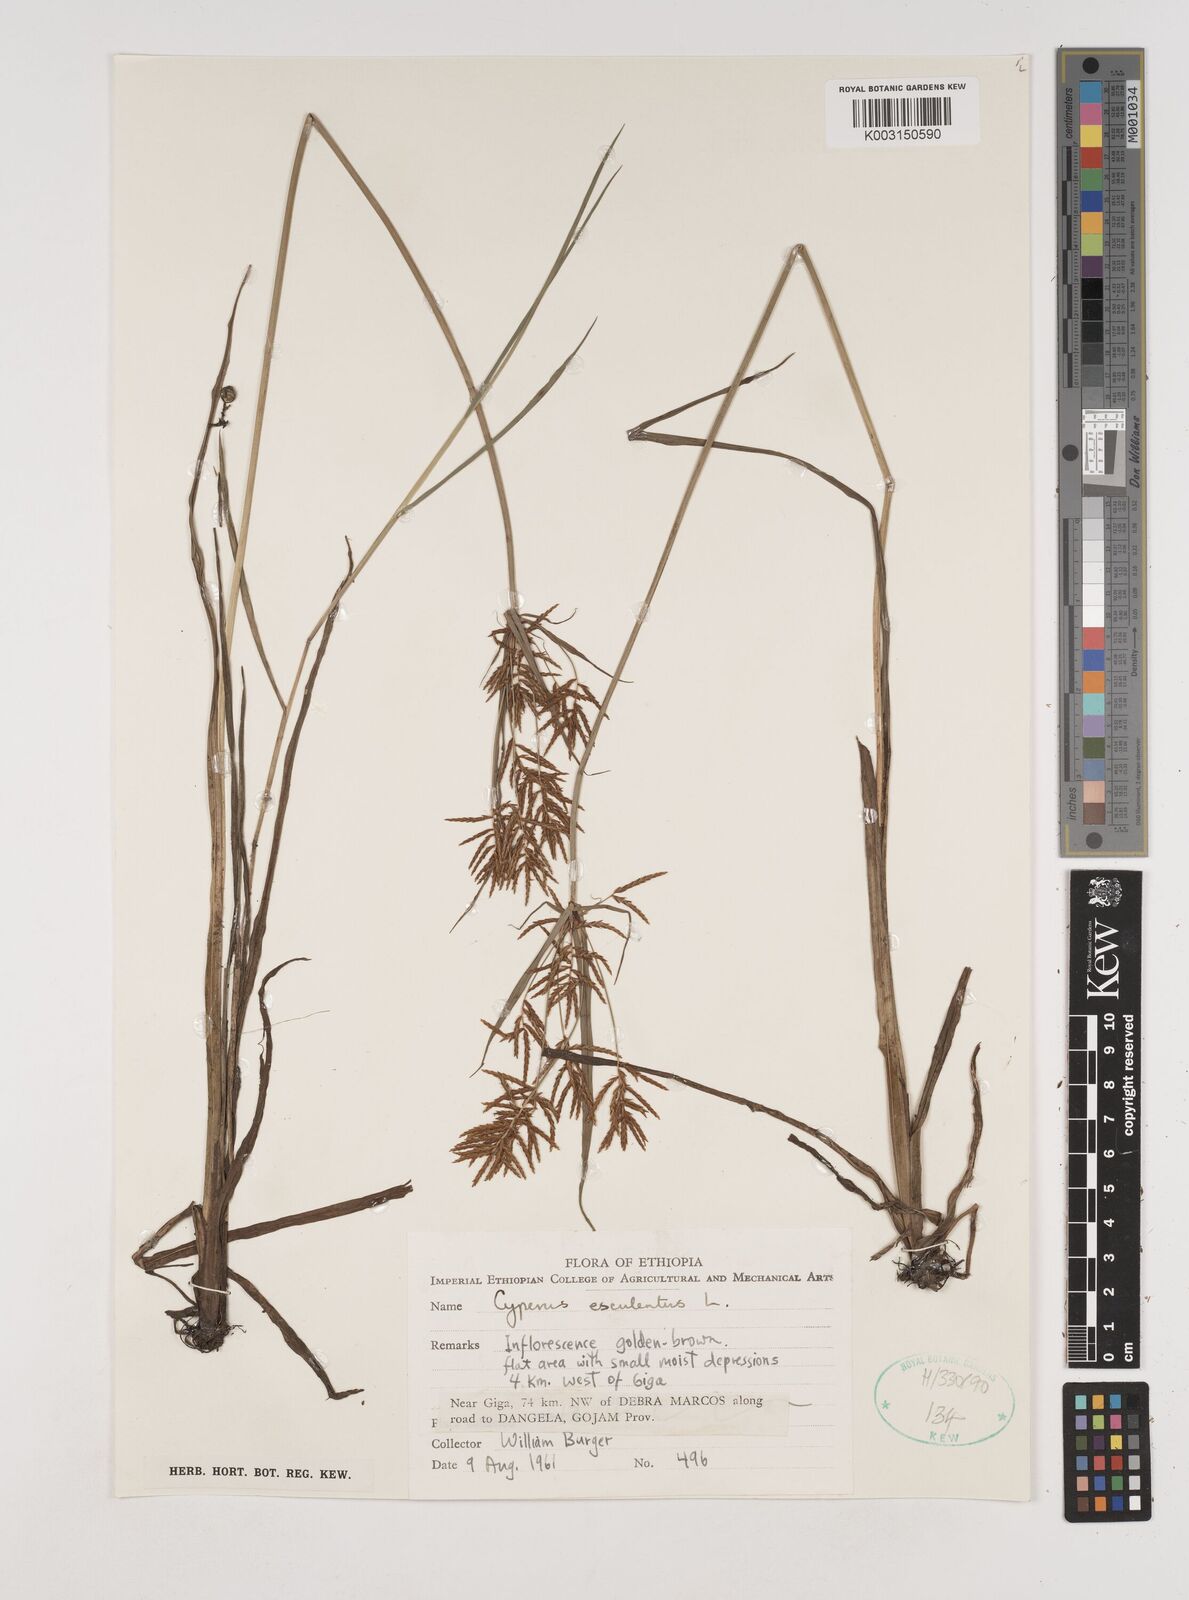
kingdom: Plantae
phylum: Tracheophyta
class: Liliopsida
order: Poales
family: Cyperaceae
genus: Cyperus
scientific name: Cyperus esculentus
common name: Yellow nutsedge
